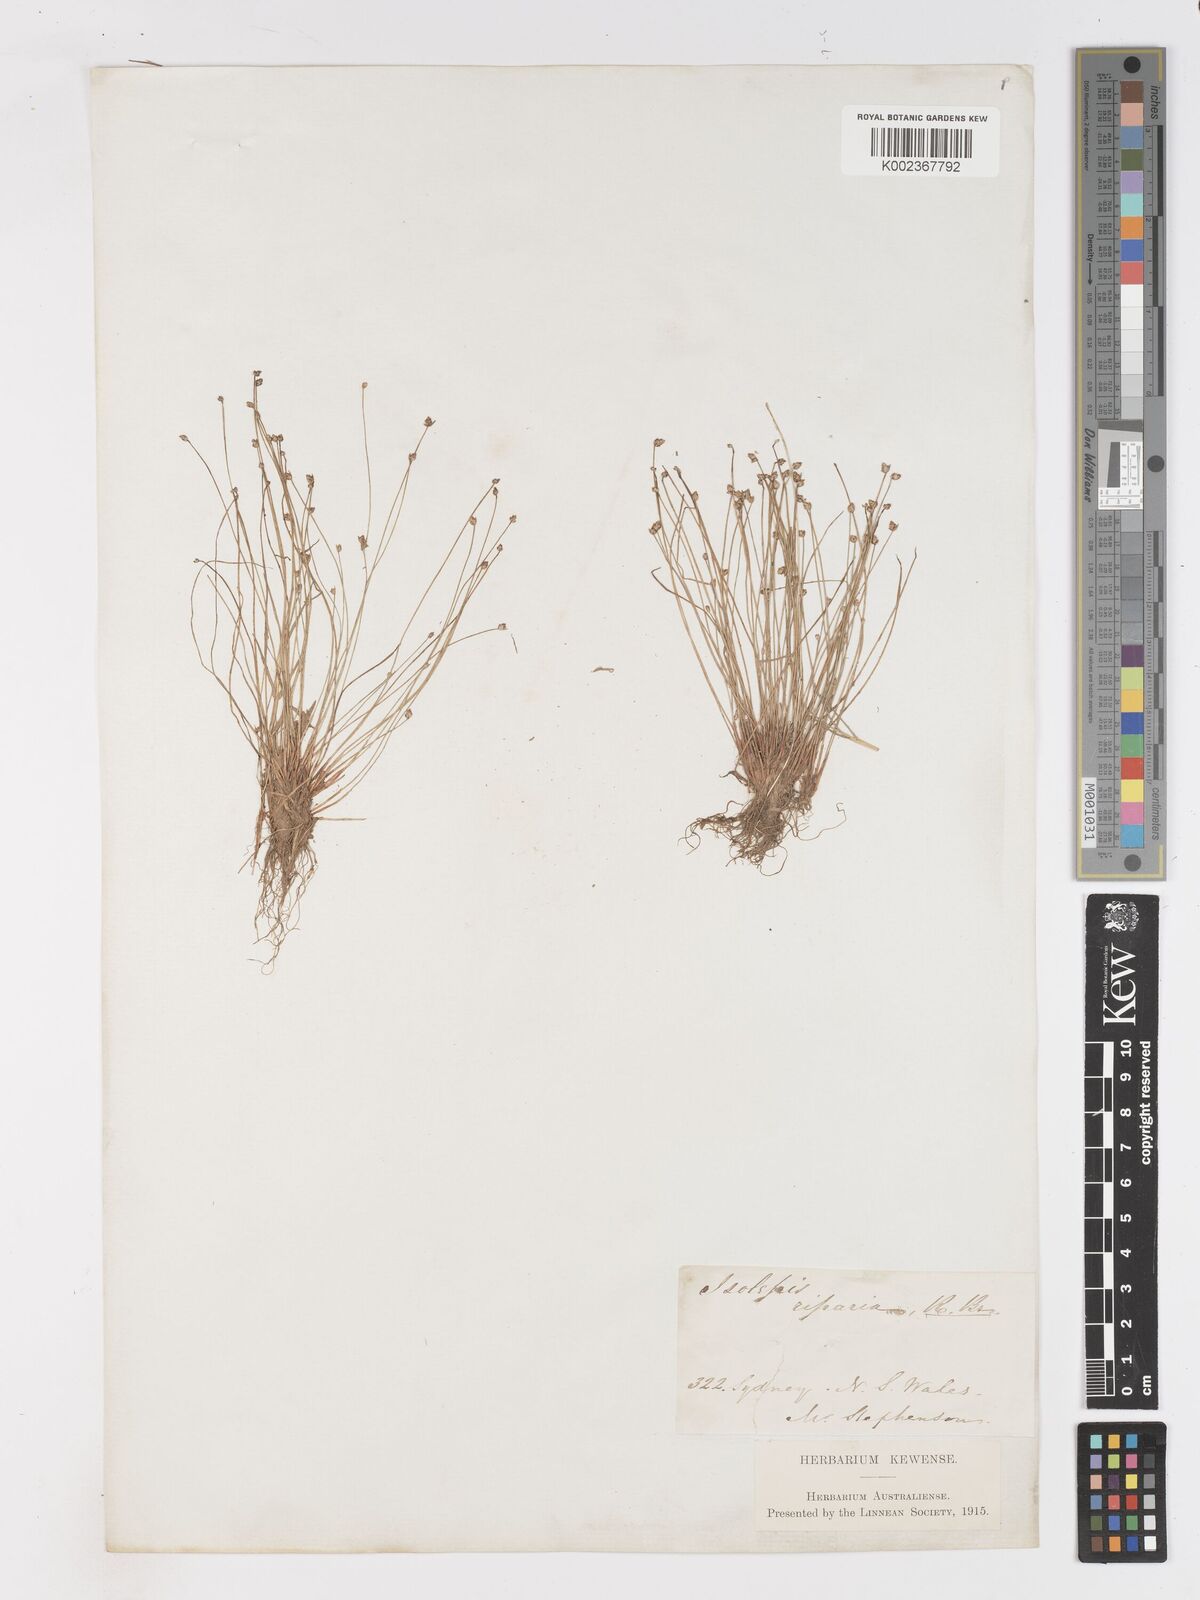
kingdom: Plantae
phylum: Tracheophyta
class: Liliopsida
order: Poales
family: Cyperaceae
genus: Isolepis
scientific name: Isolepis cernua
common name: Slender club-rush
